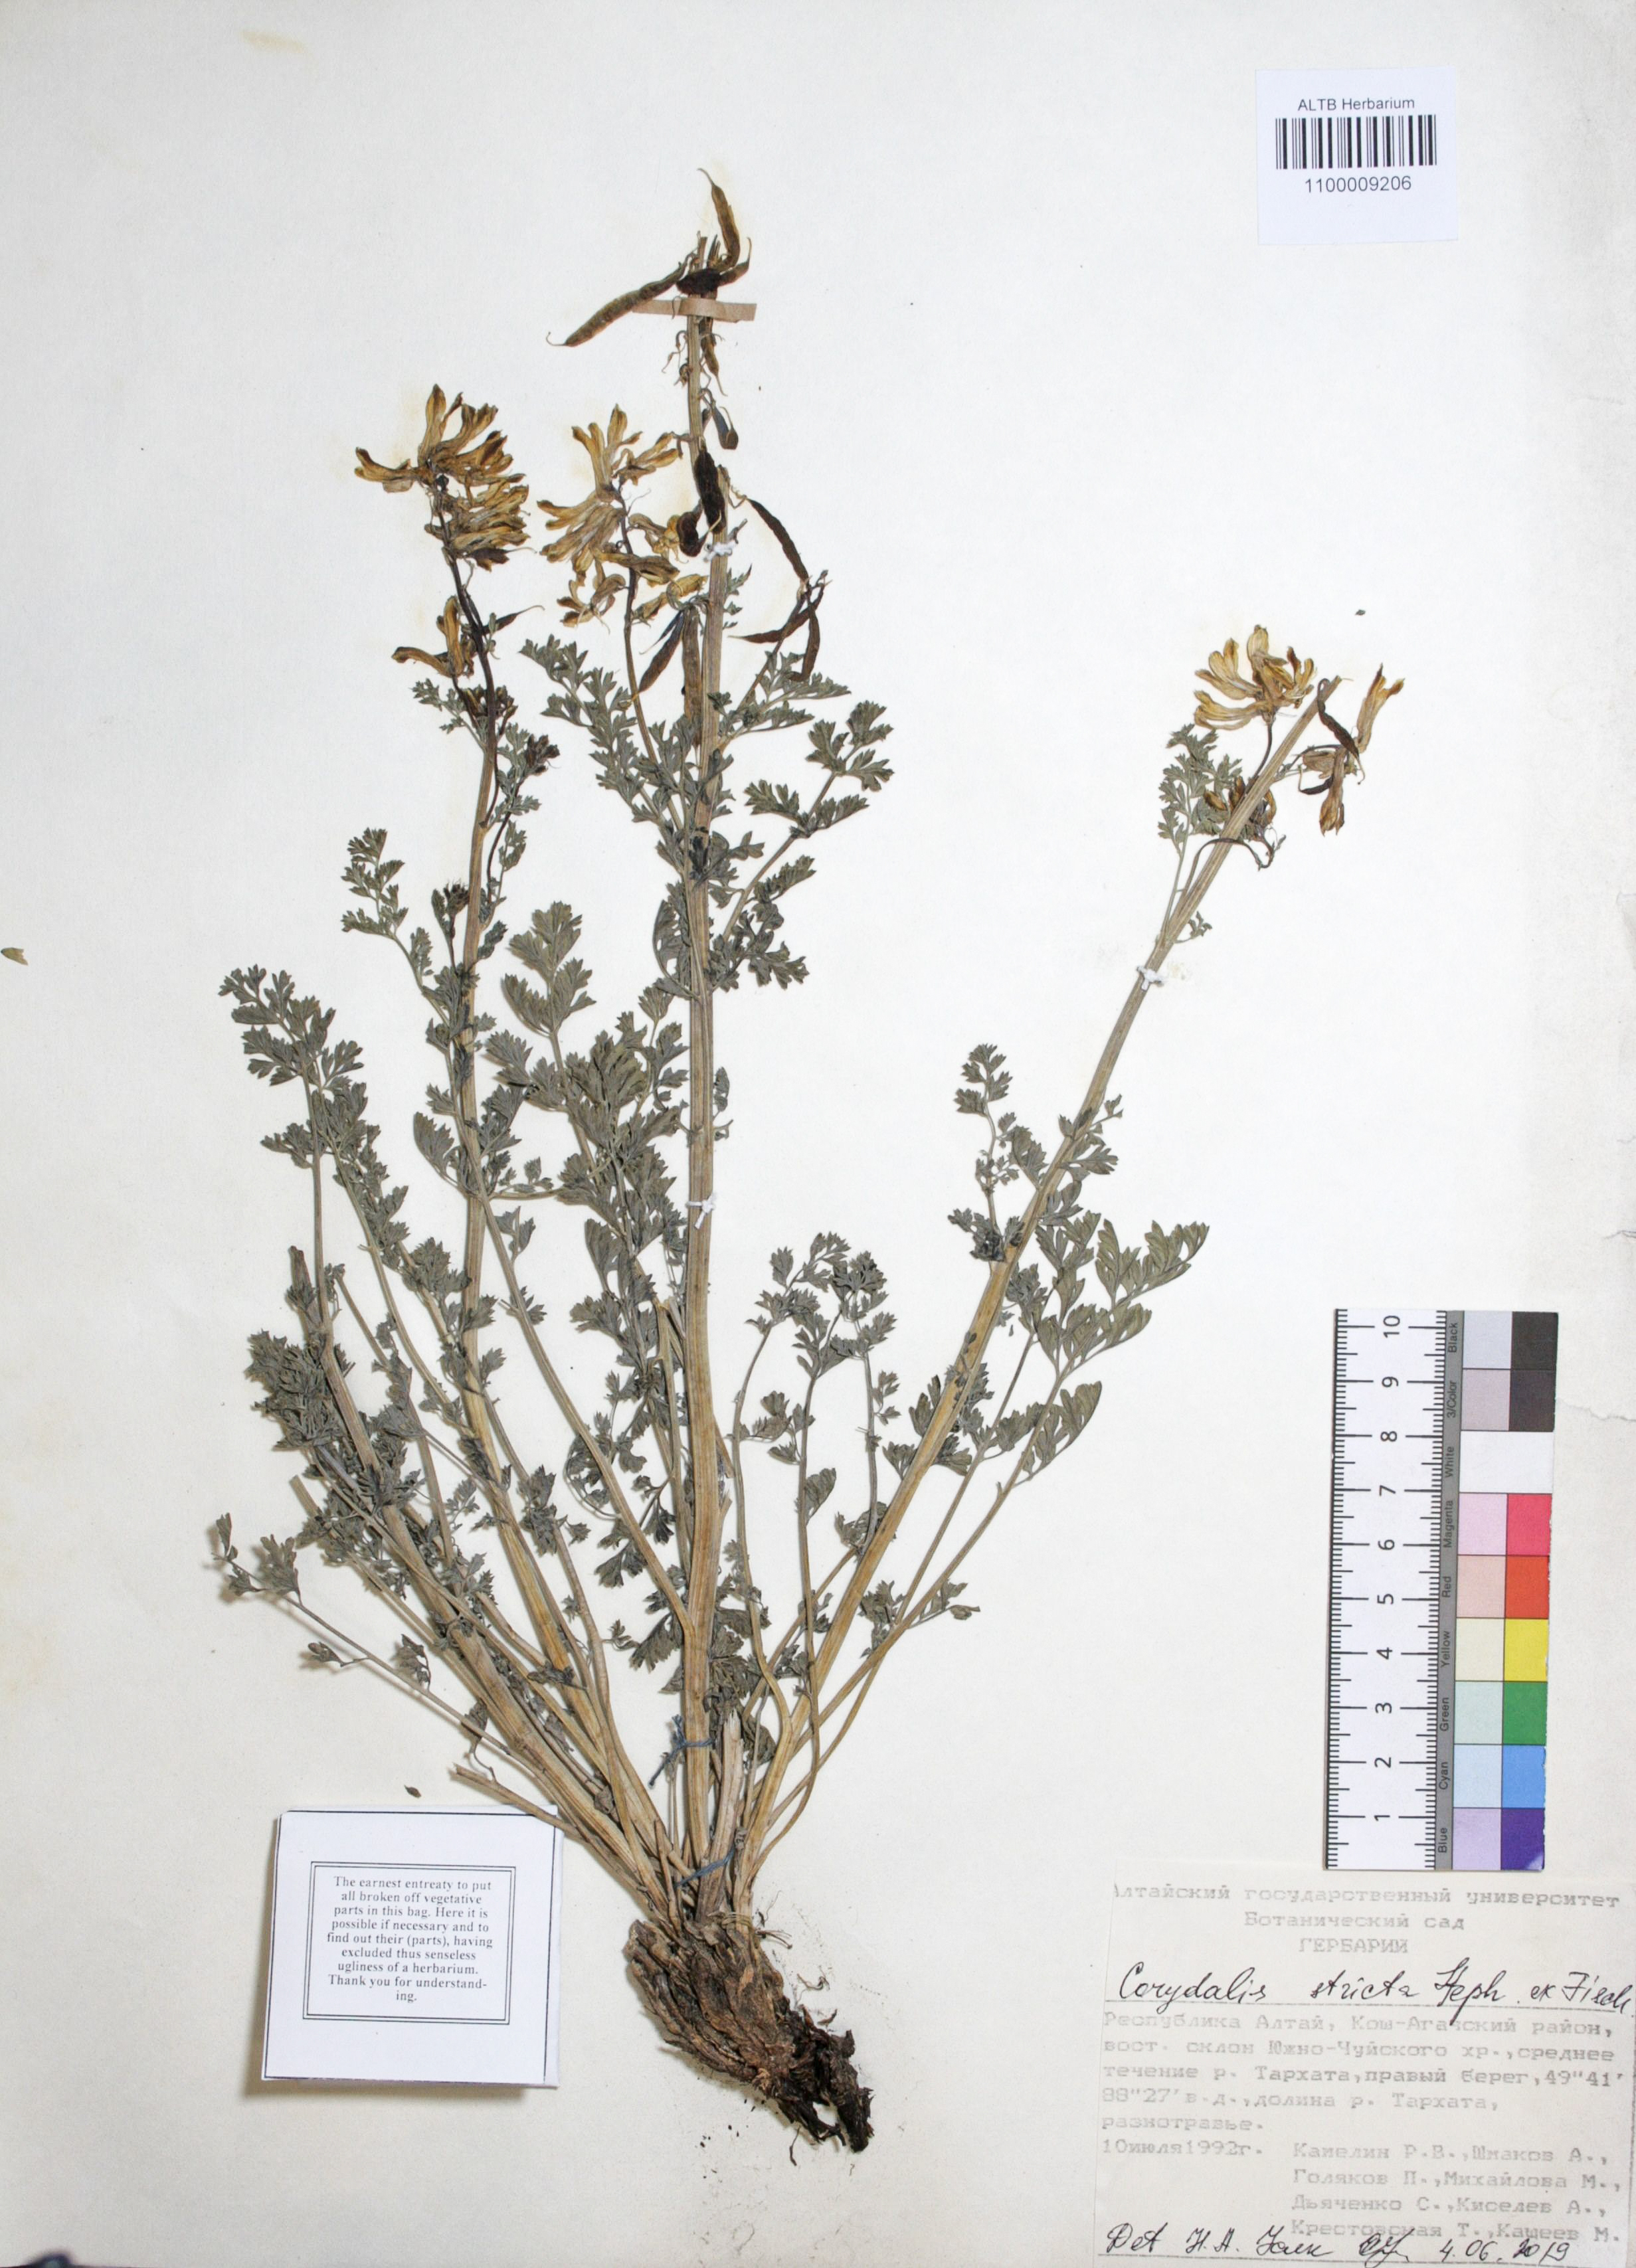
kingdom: Plantae
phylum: Tracheophyta
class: Magnoliopsida
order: Ranunculales
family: Papaveraceae
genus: Corydalis
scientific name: Corydalis stricta
